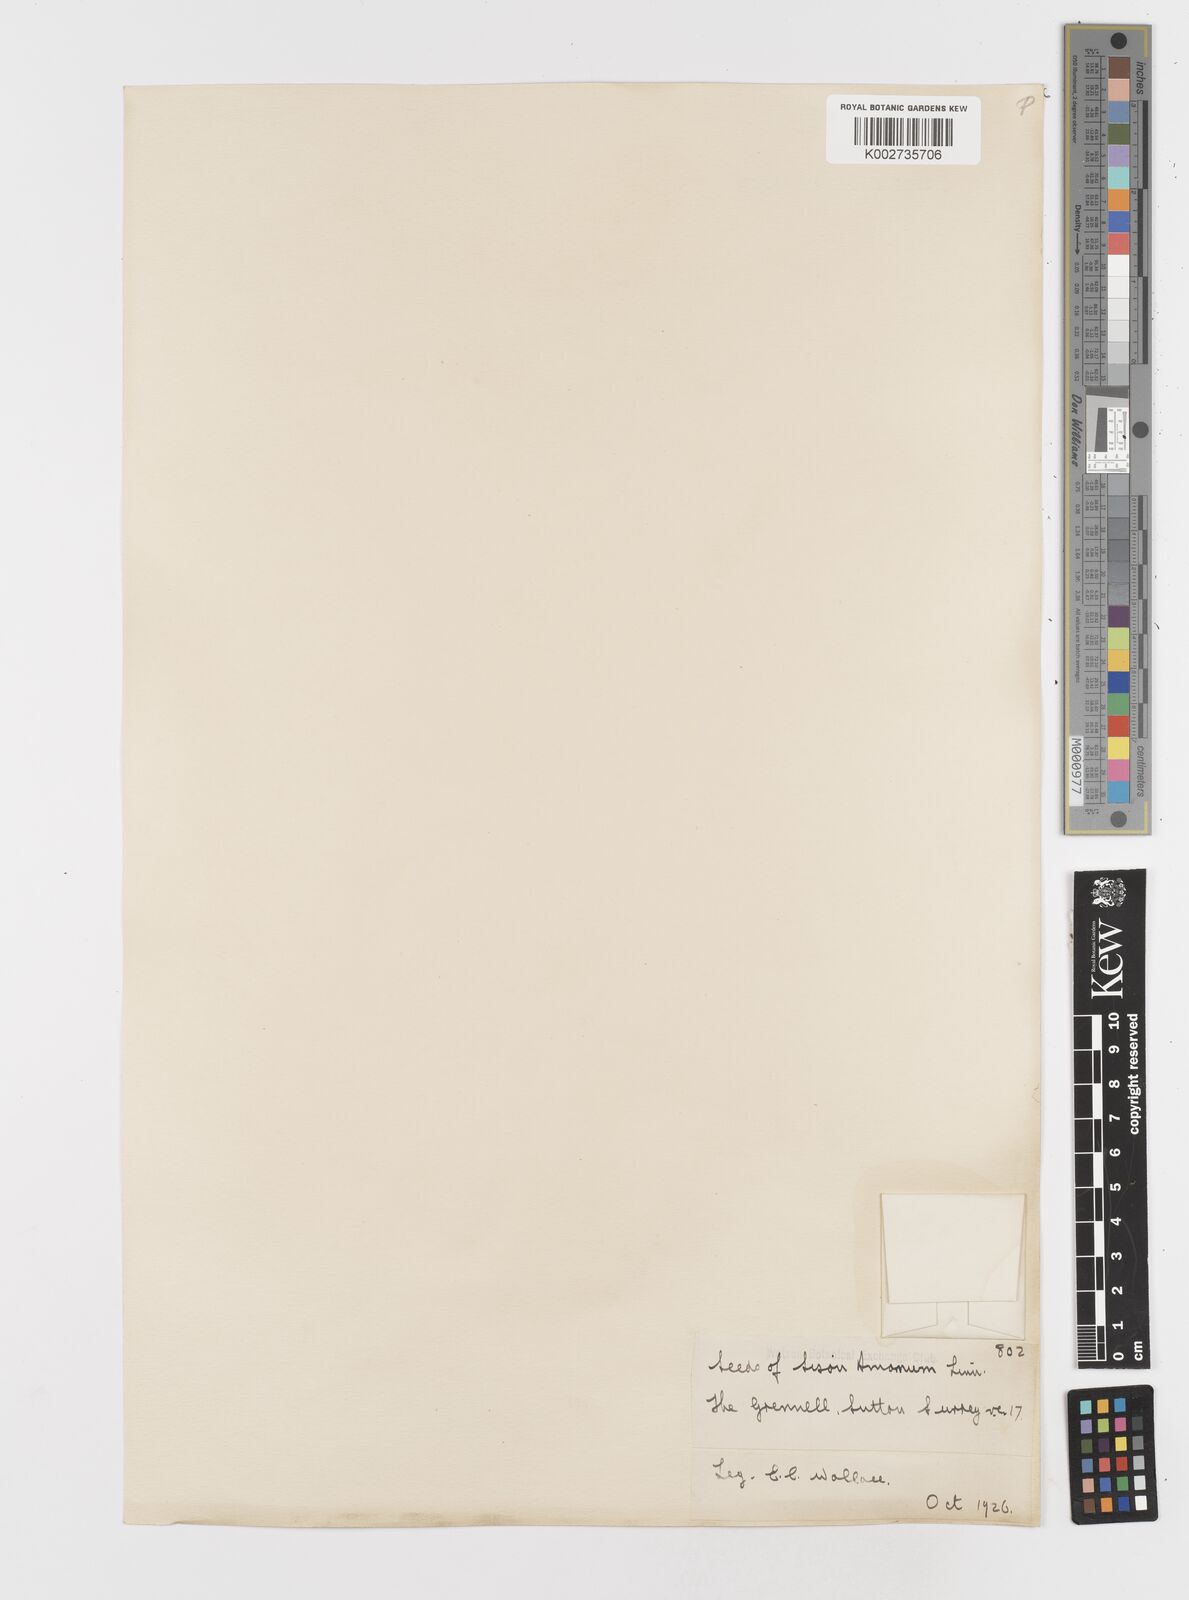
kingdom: Plantae
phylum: Tracheophyta
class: Magnoliopsida
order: Apiales
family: Apiaceae
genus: Sison
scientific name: Sison amomum
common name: Stone-parsley
